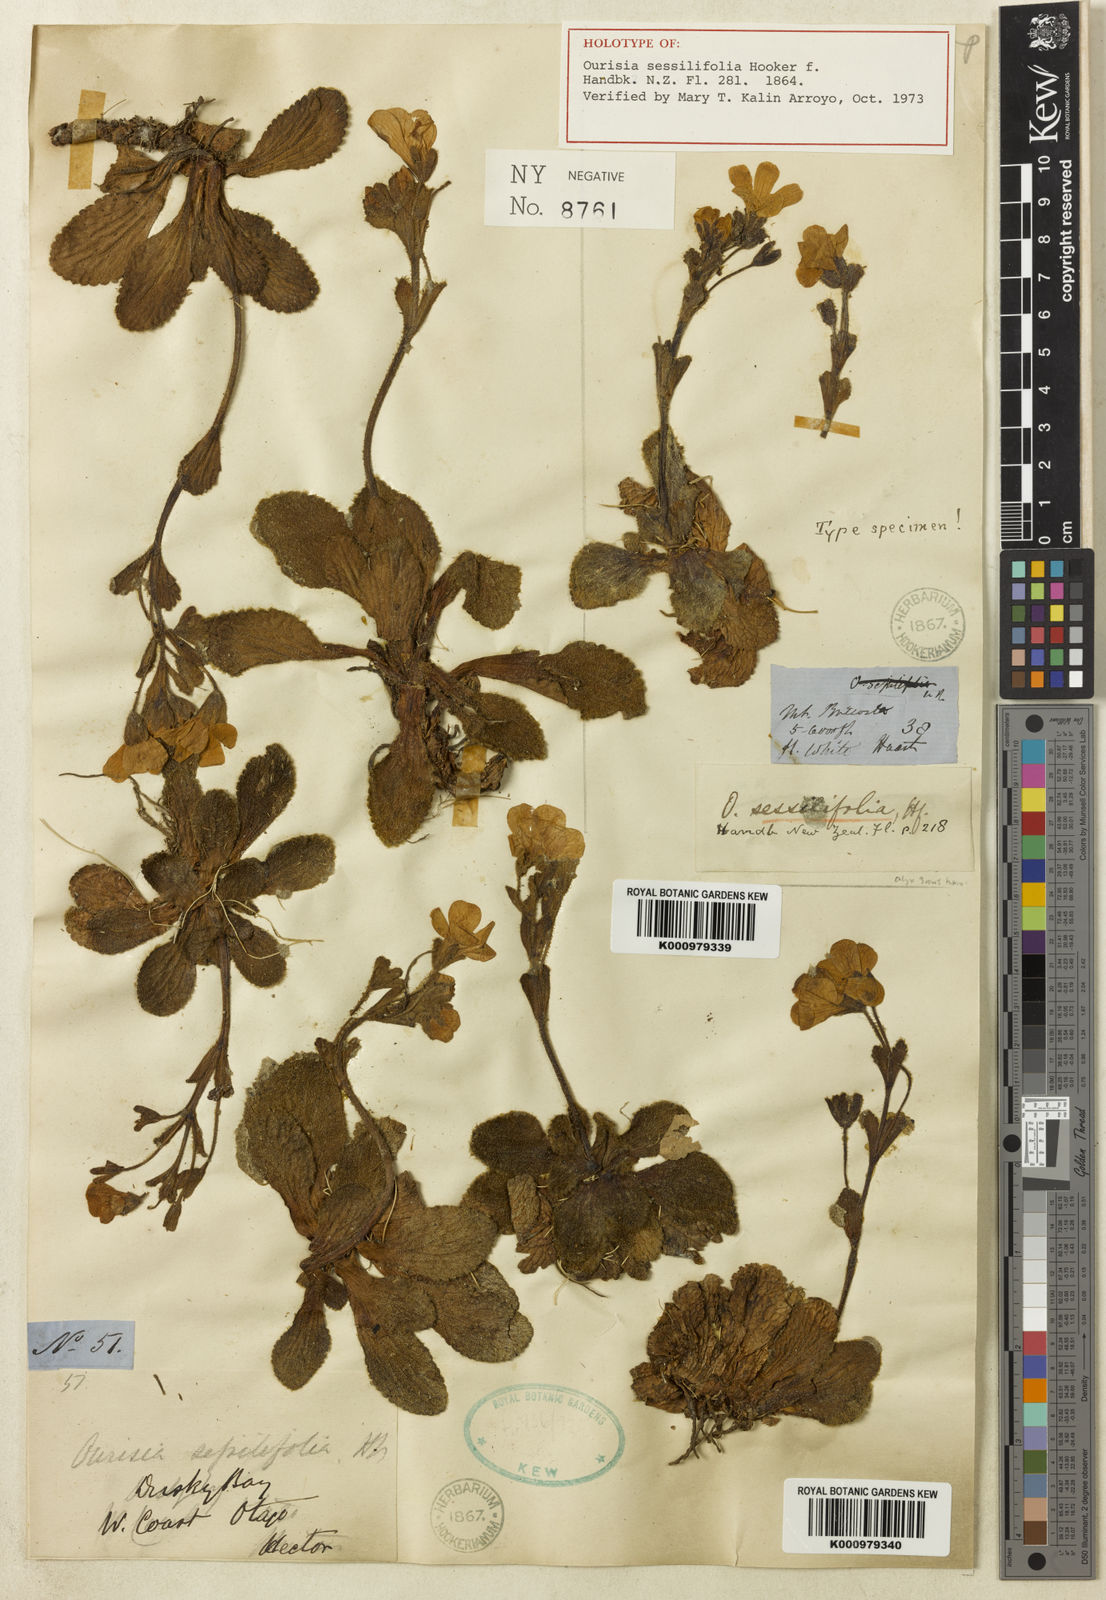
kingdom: Plantae
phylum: Tracheophyta
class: Magnoliopsida
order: Lamiales
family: Plantaginaceae
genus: Ourisia
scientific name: Ourisia sessilifolia
